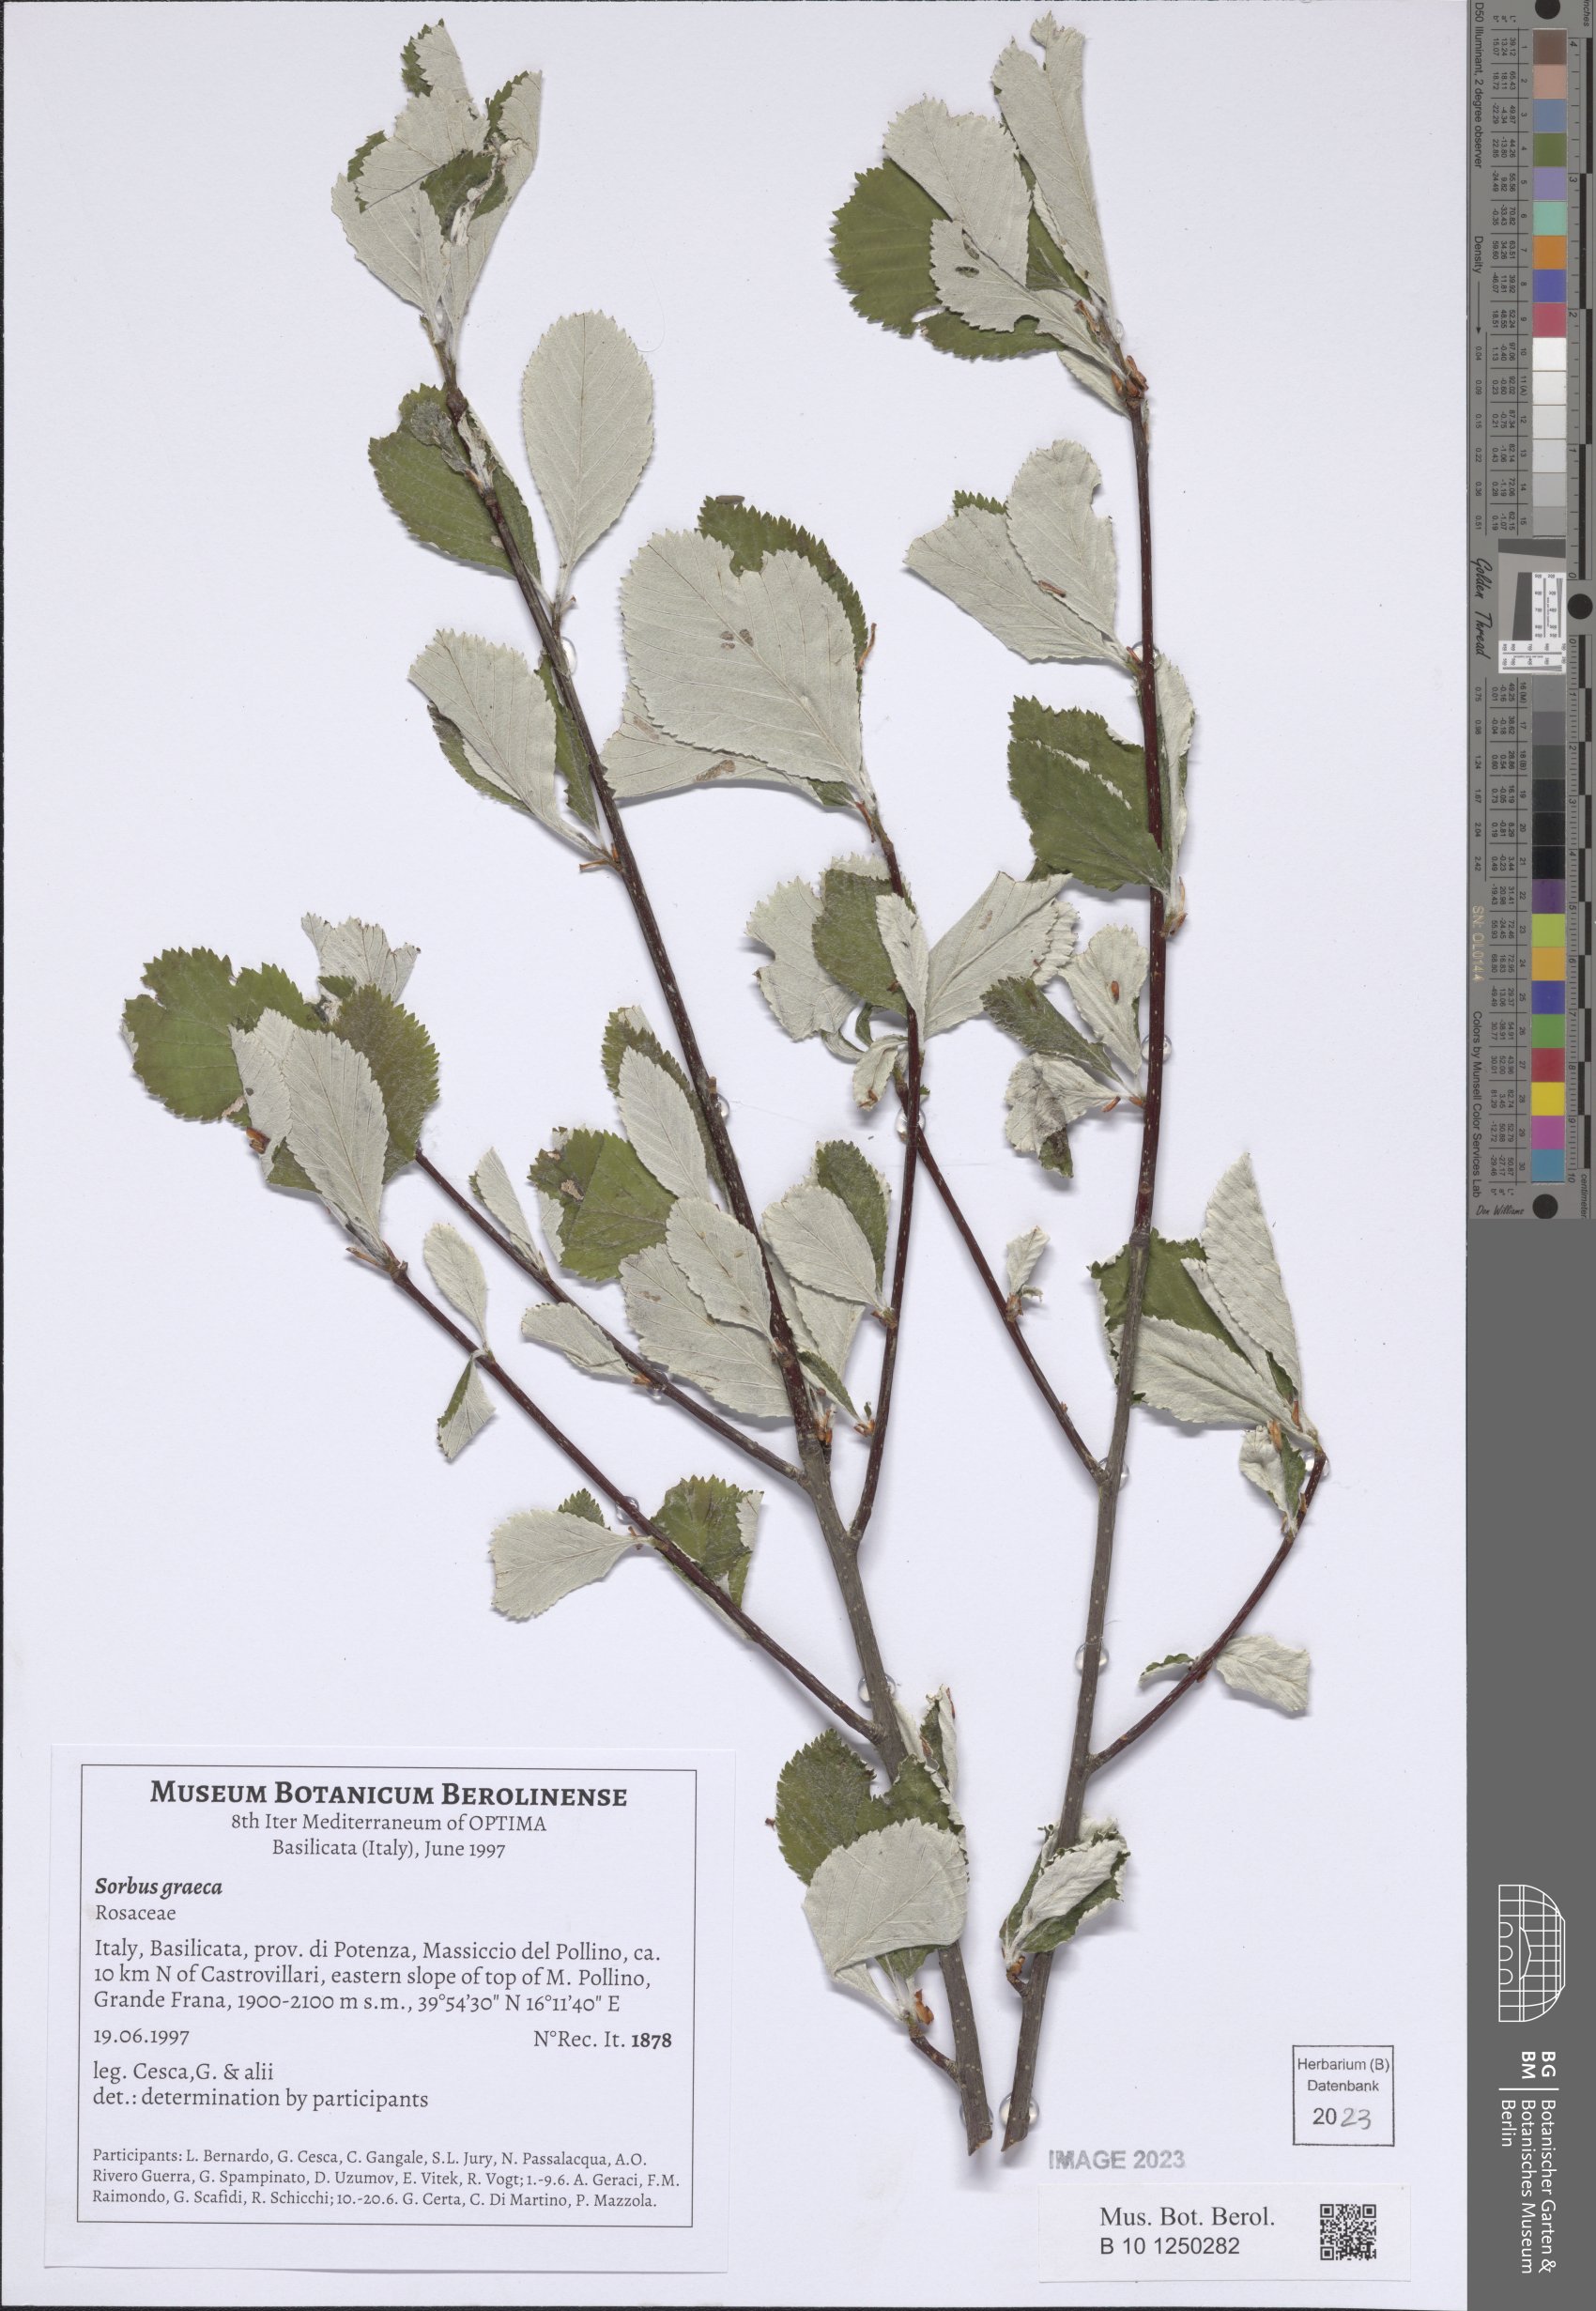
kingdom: Plantae
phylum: Tracheophyta
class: Magnoliopsida
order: Rosales
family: Rosaceae
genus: Aria
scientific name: Aria graeca
